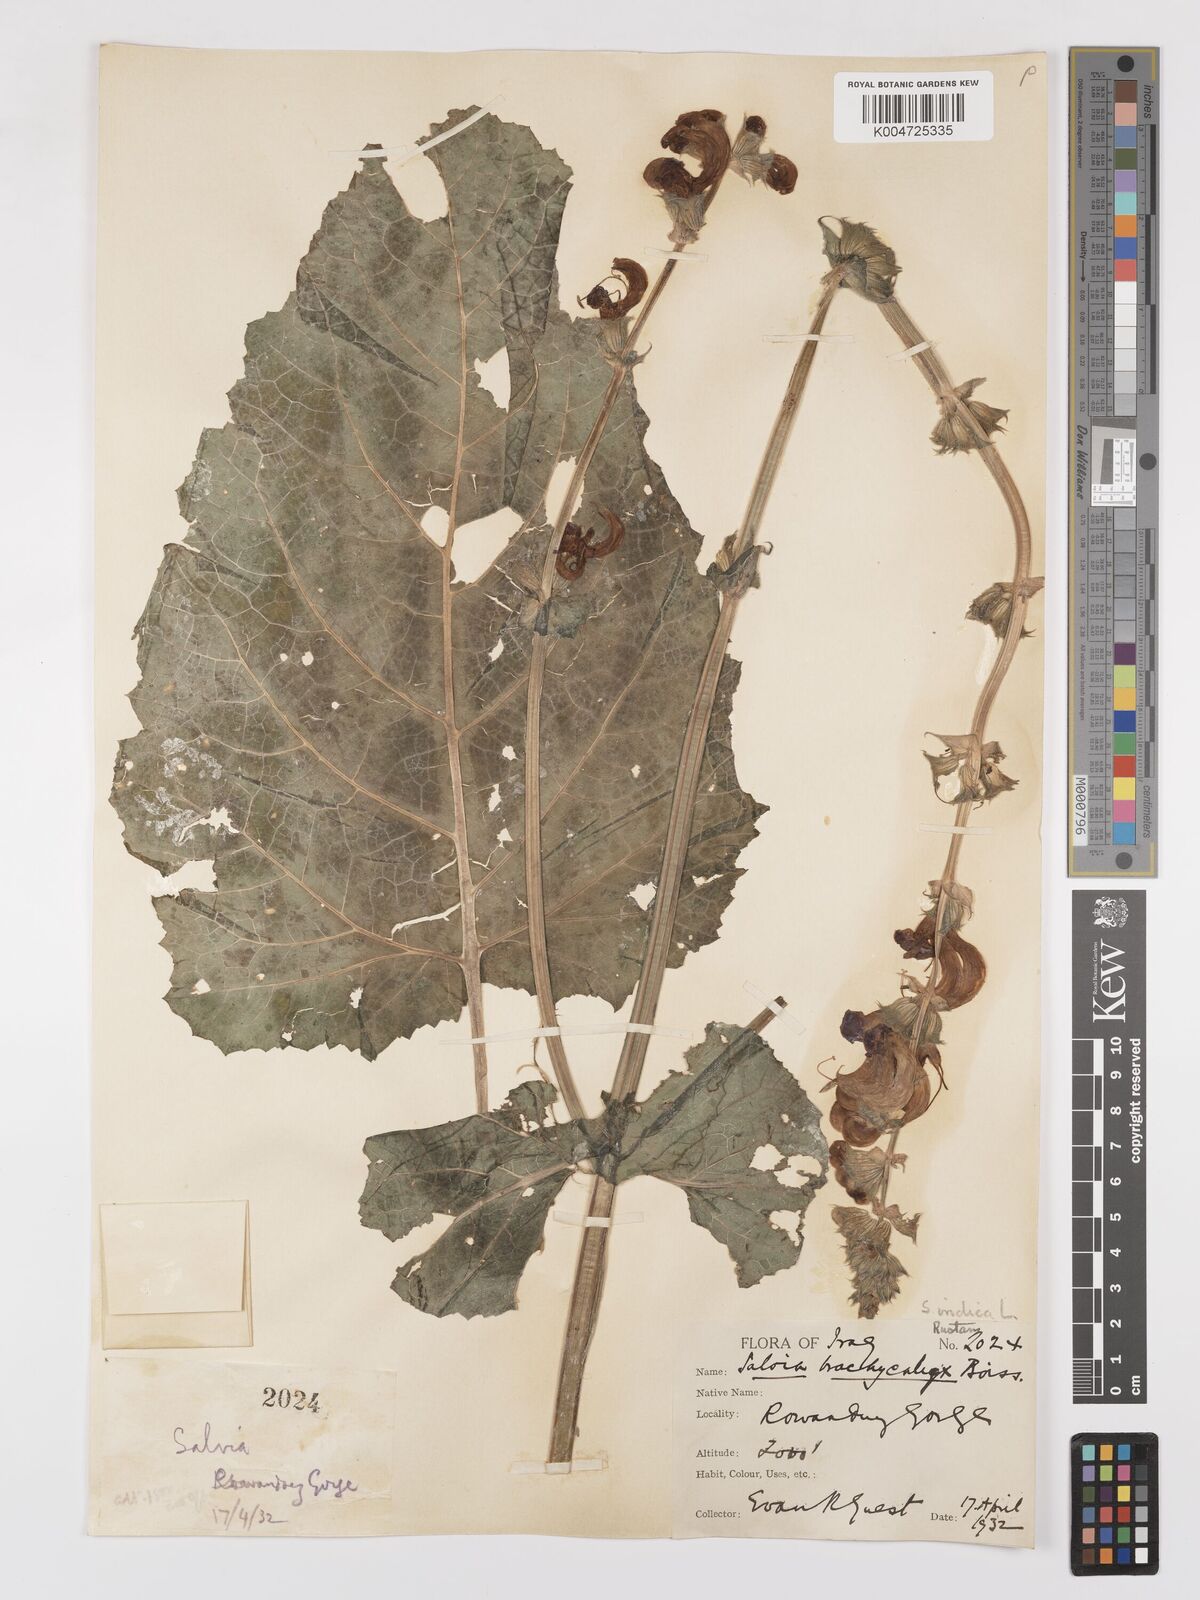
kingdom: Plantae
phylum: Tracheophyta
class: Magnoliopsida
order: Lamiales
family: Lamiaceae
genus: Salvia
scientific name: Salvia indica
